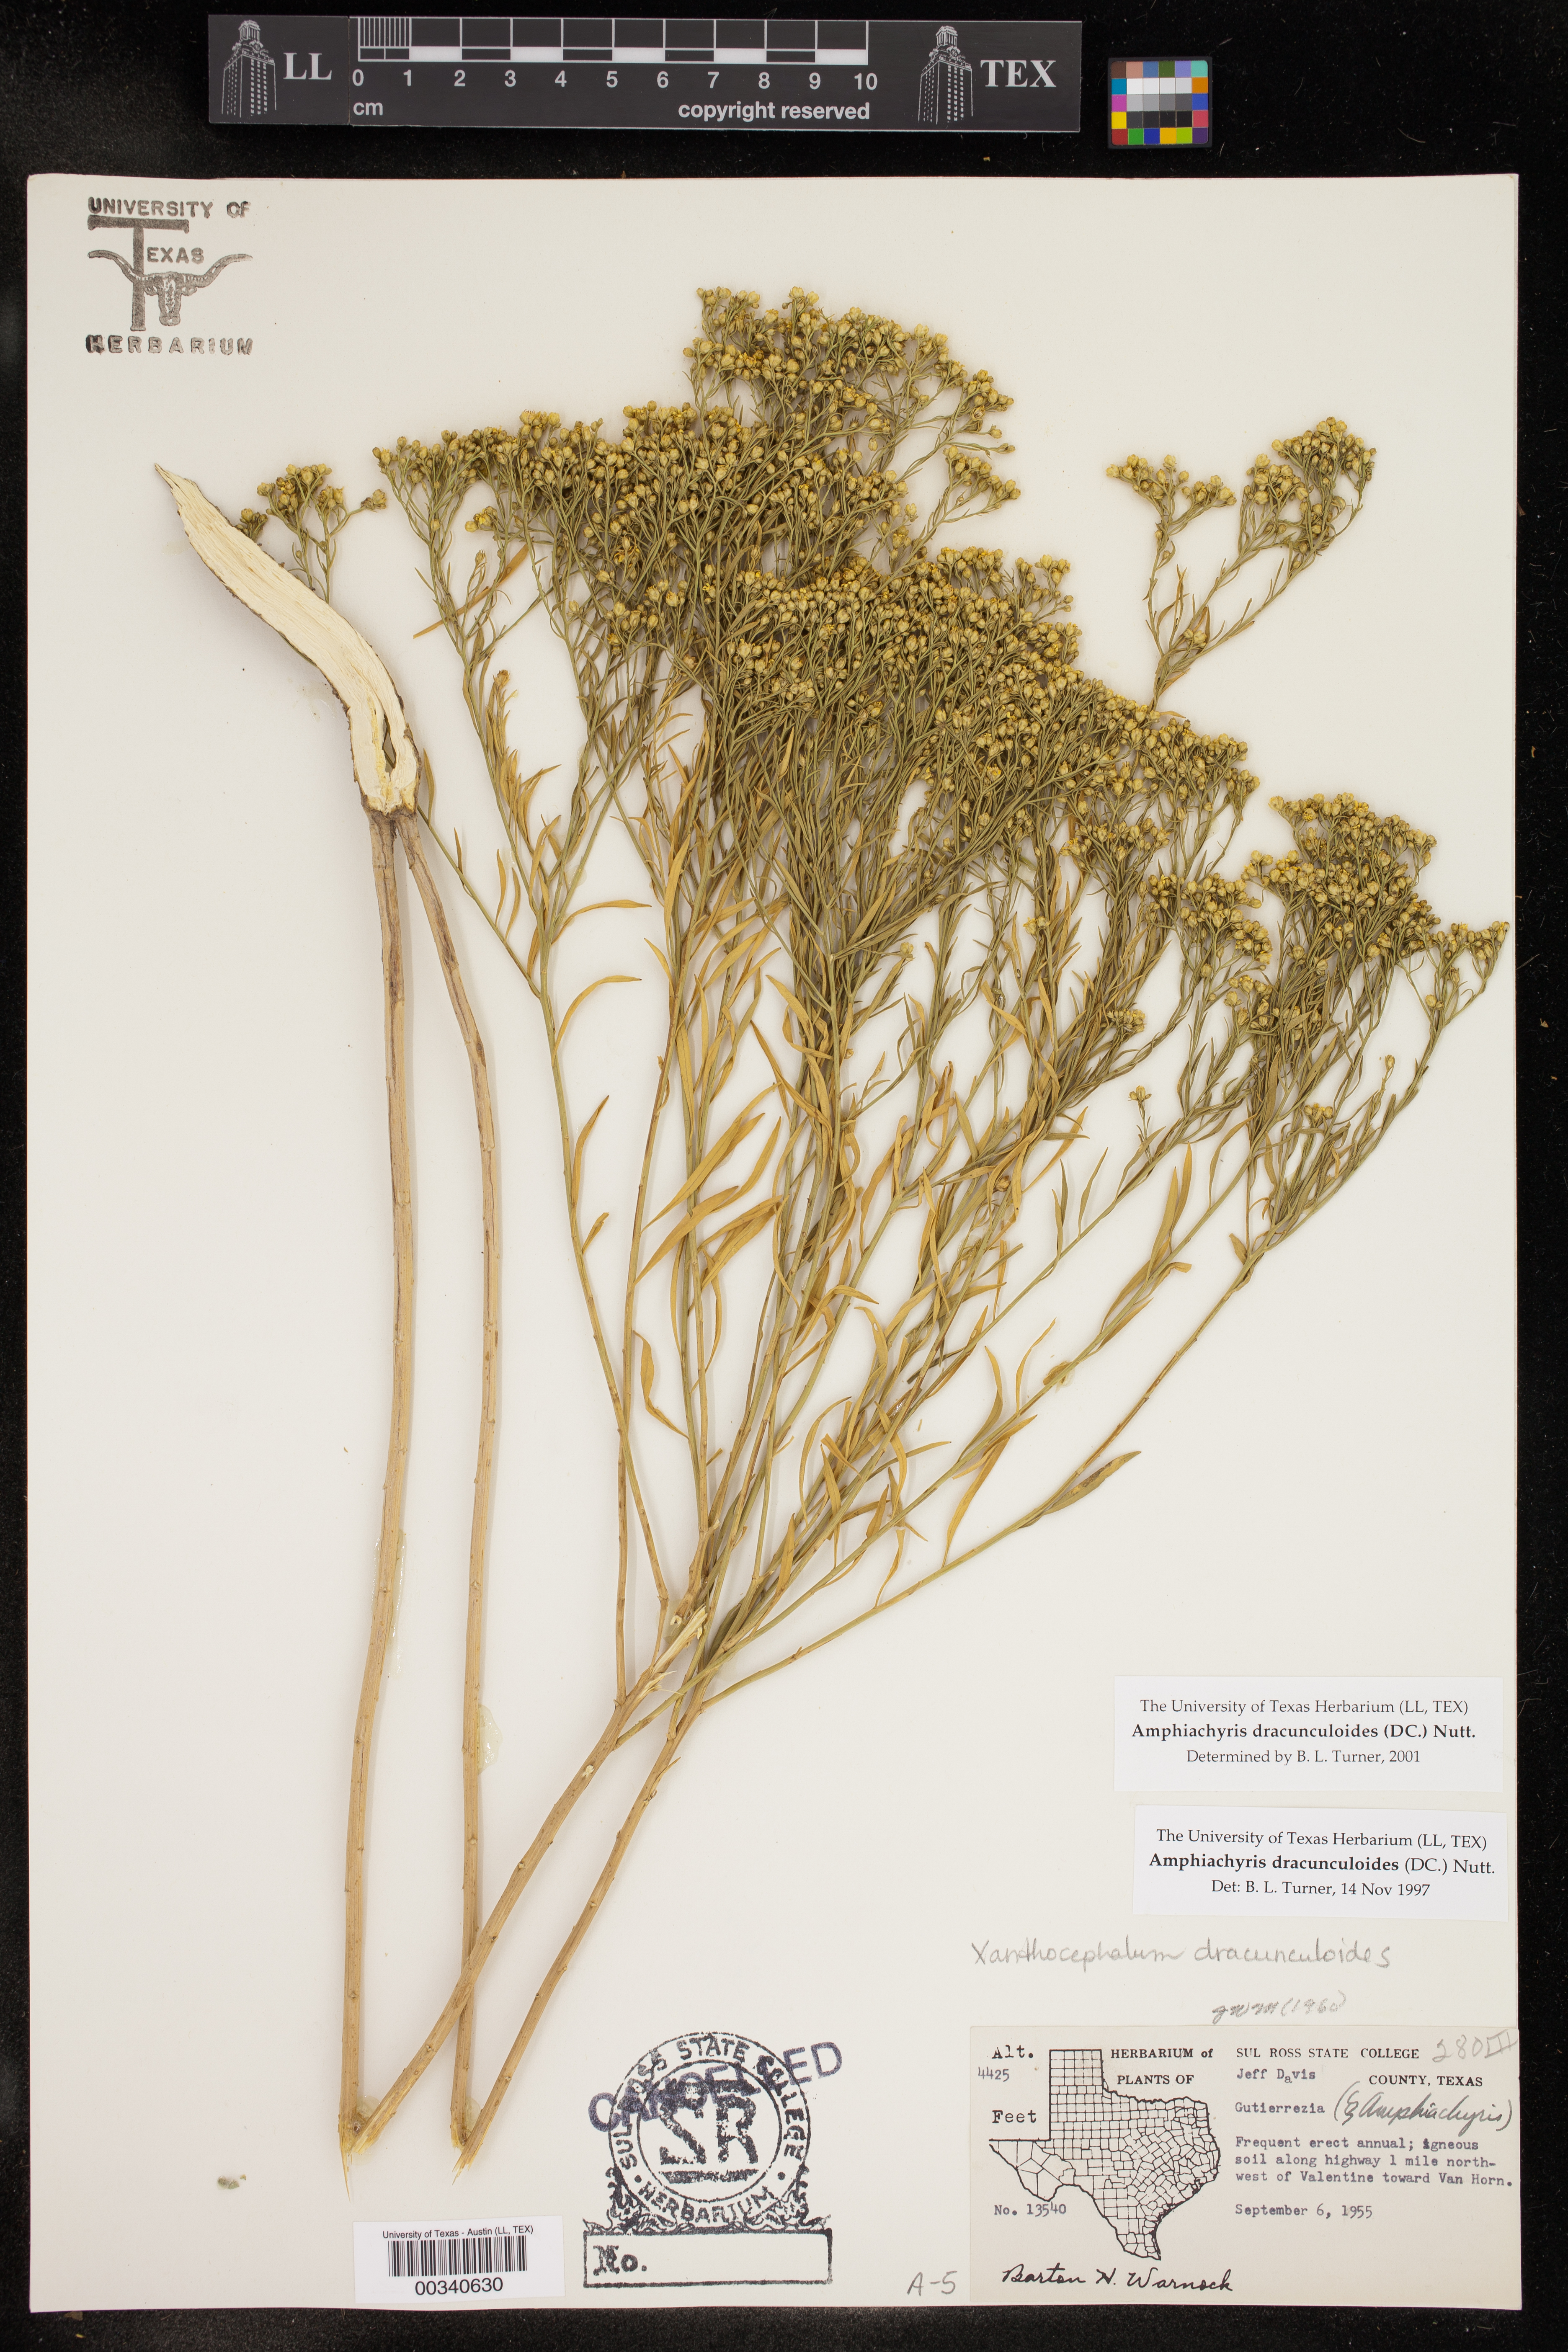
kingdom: Plantae
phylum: Tracheophyta
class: Magnoliopsida
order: Asterales
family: Asteraceae
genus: Amphiachyris
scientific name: Amphiachyris dracunculoides
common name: Broomweed
